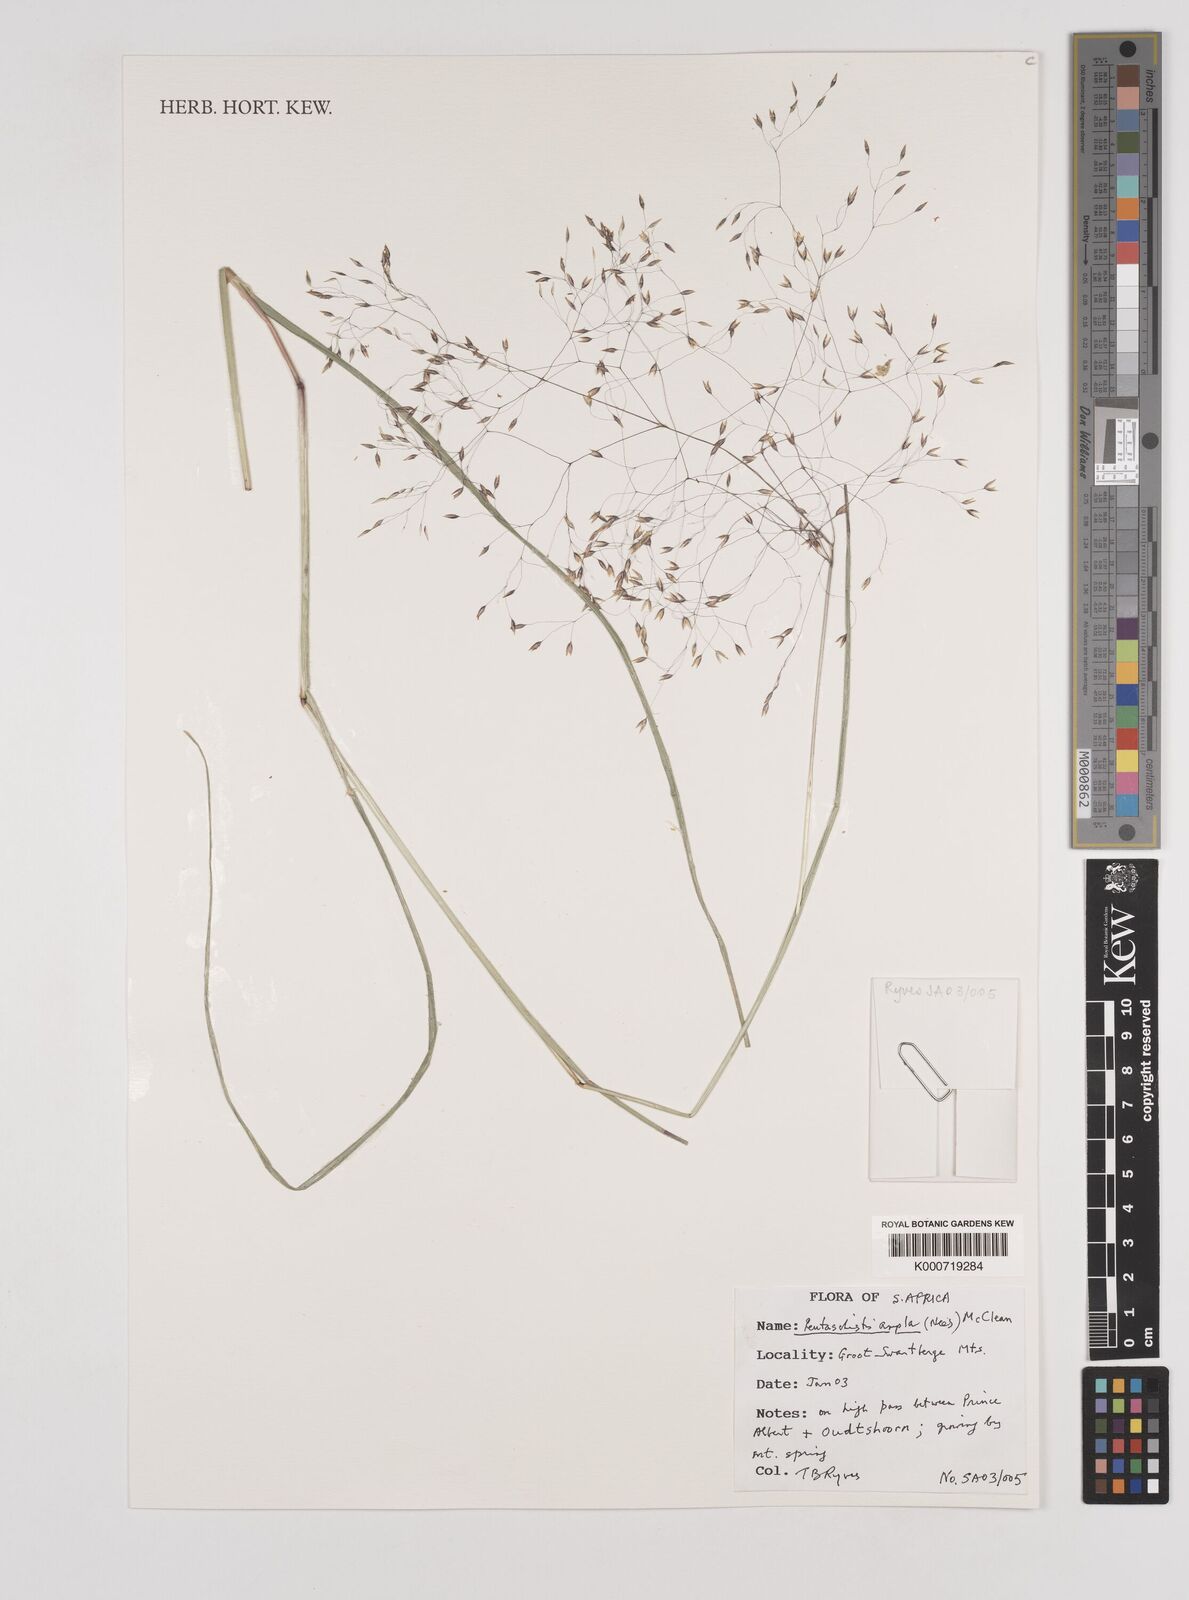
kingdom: Plantae
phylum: Tracheophyta
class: Liliopsida
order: Poales
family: Poaceae
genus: Pentameris
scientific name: Pentameris ampla
